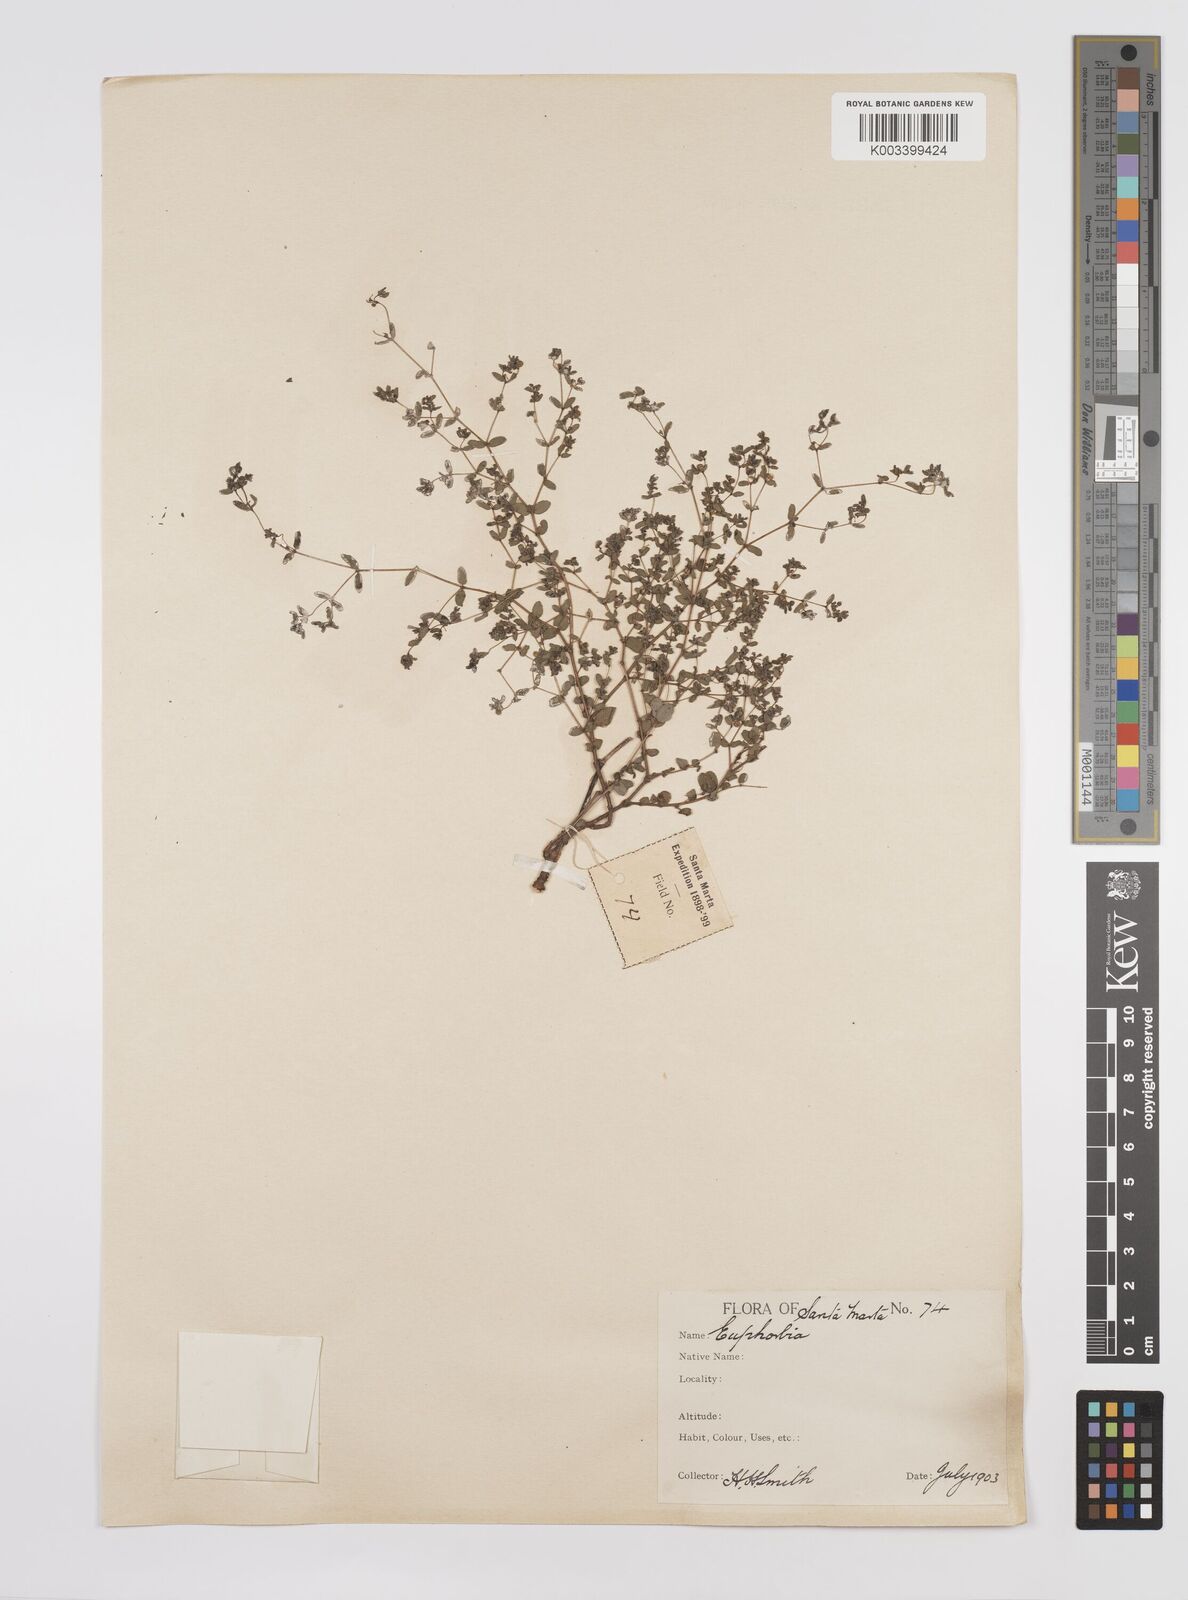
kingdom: Plantae
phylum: Tracheophyta
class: Magnoliopsida
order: Malpighiales
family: Euphorbiaceae
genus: Euphorbia
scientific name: Euphorbia
